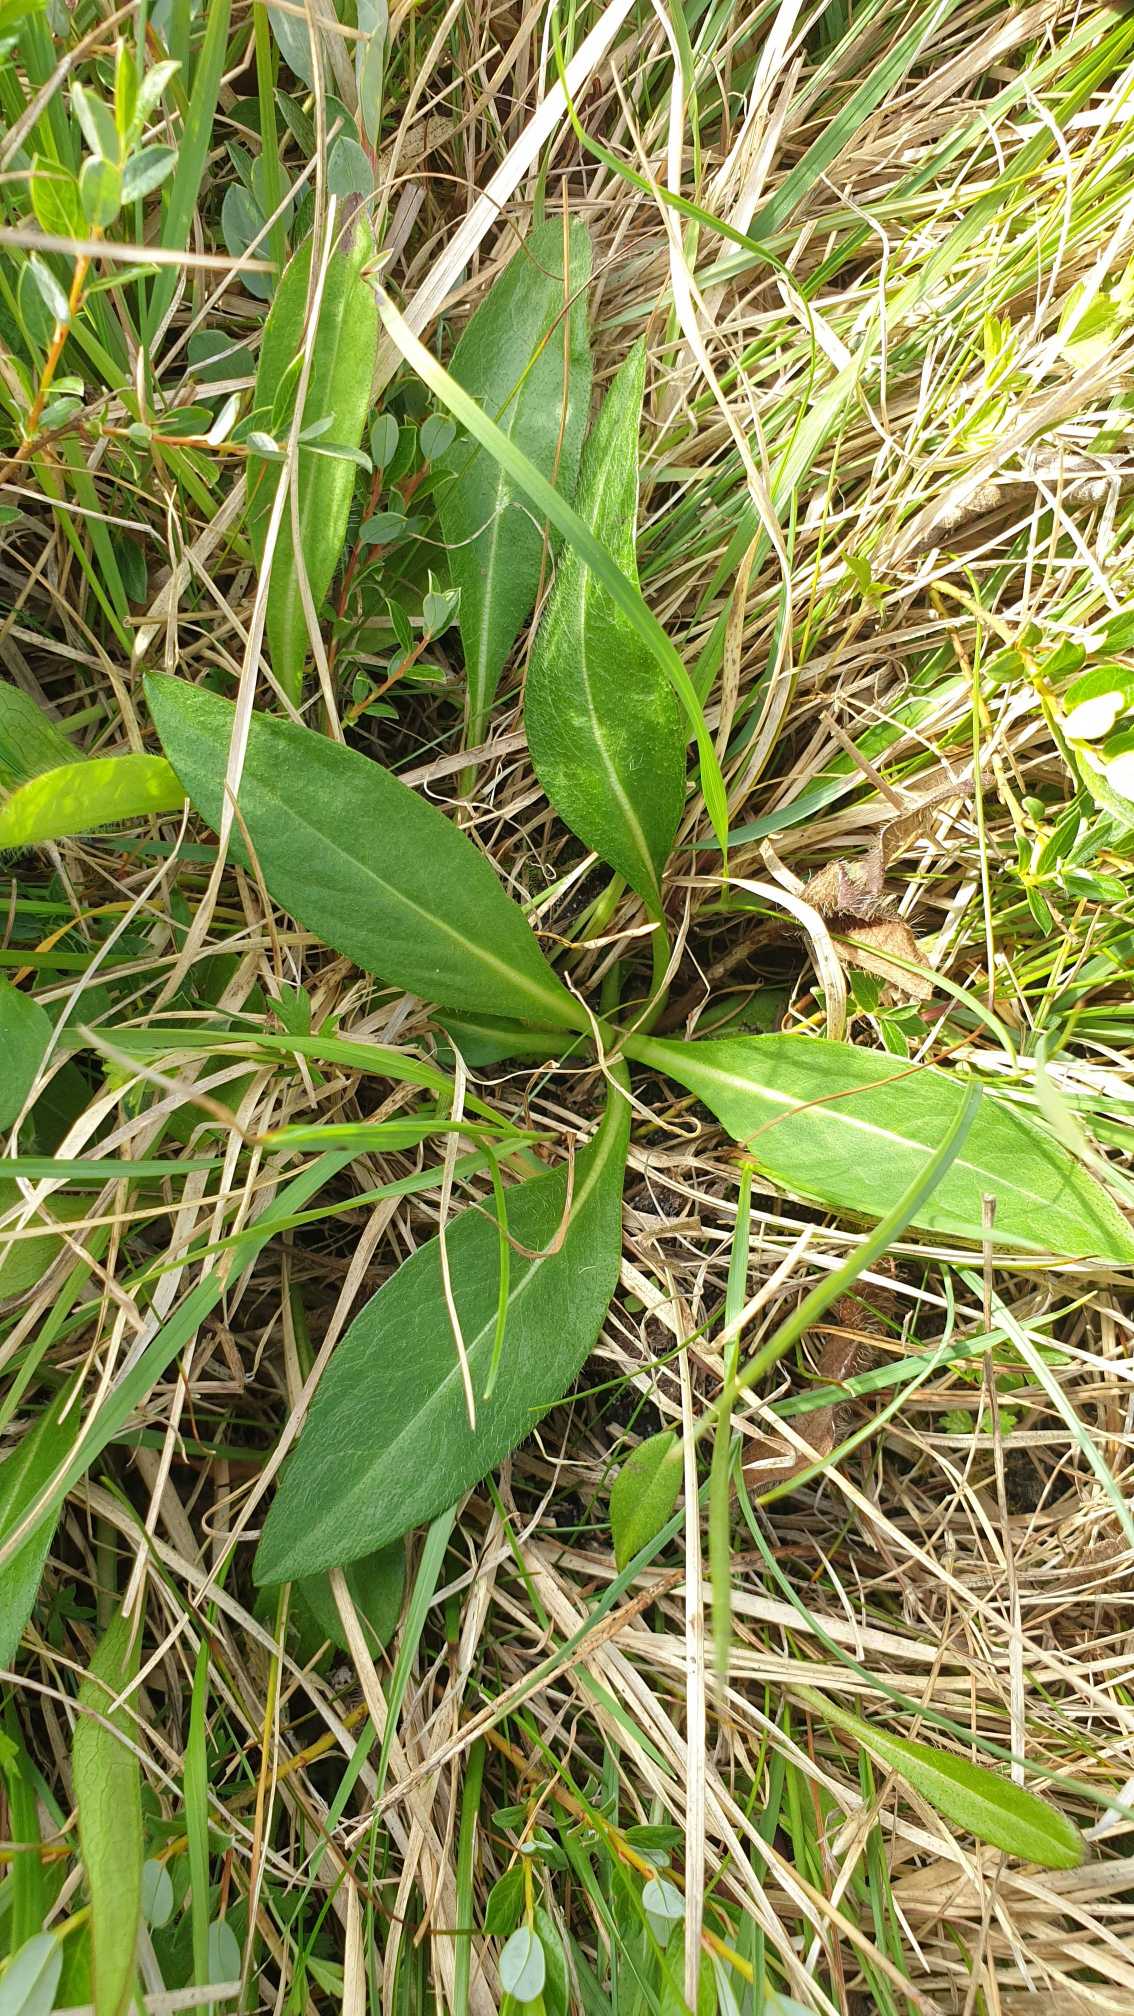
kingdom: Plantae
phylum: Tracheophyta
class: Magnoliopsida
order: Dipsacales
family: Caprifoliaceae
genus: Succisa
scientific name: Succisa pratensis
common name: Djævelsbid
